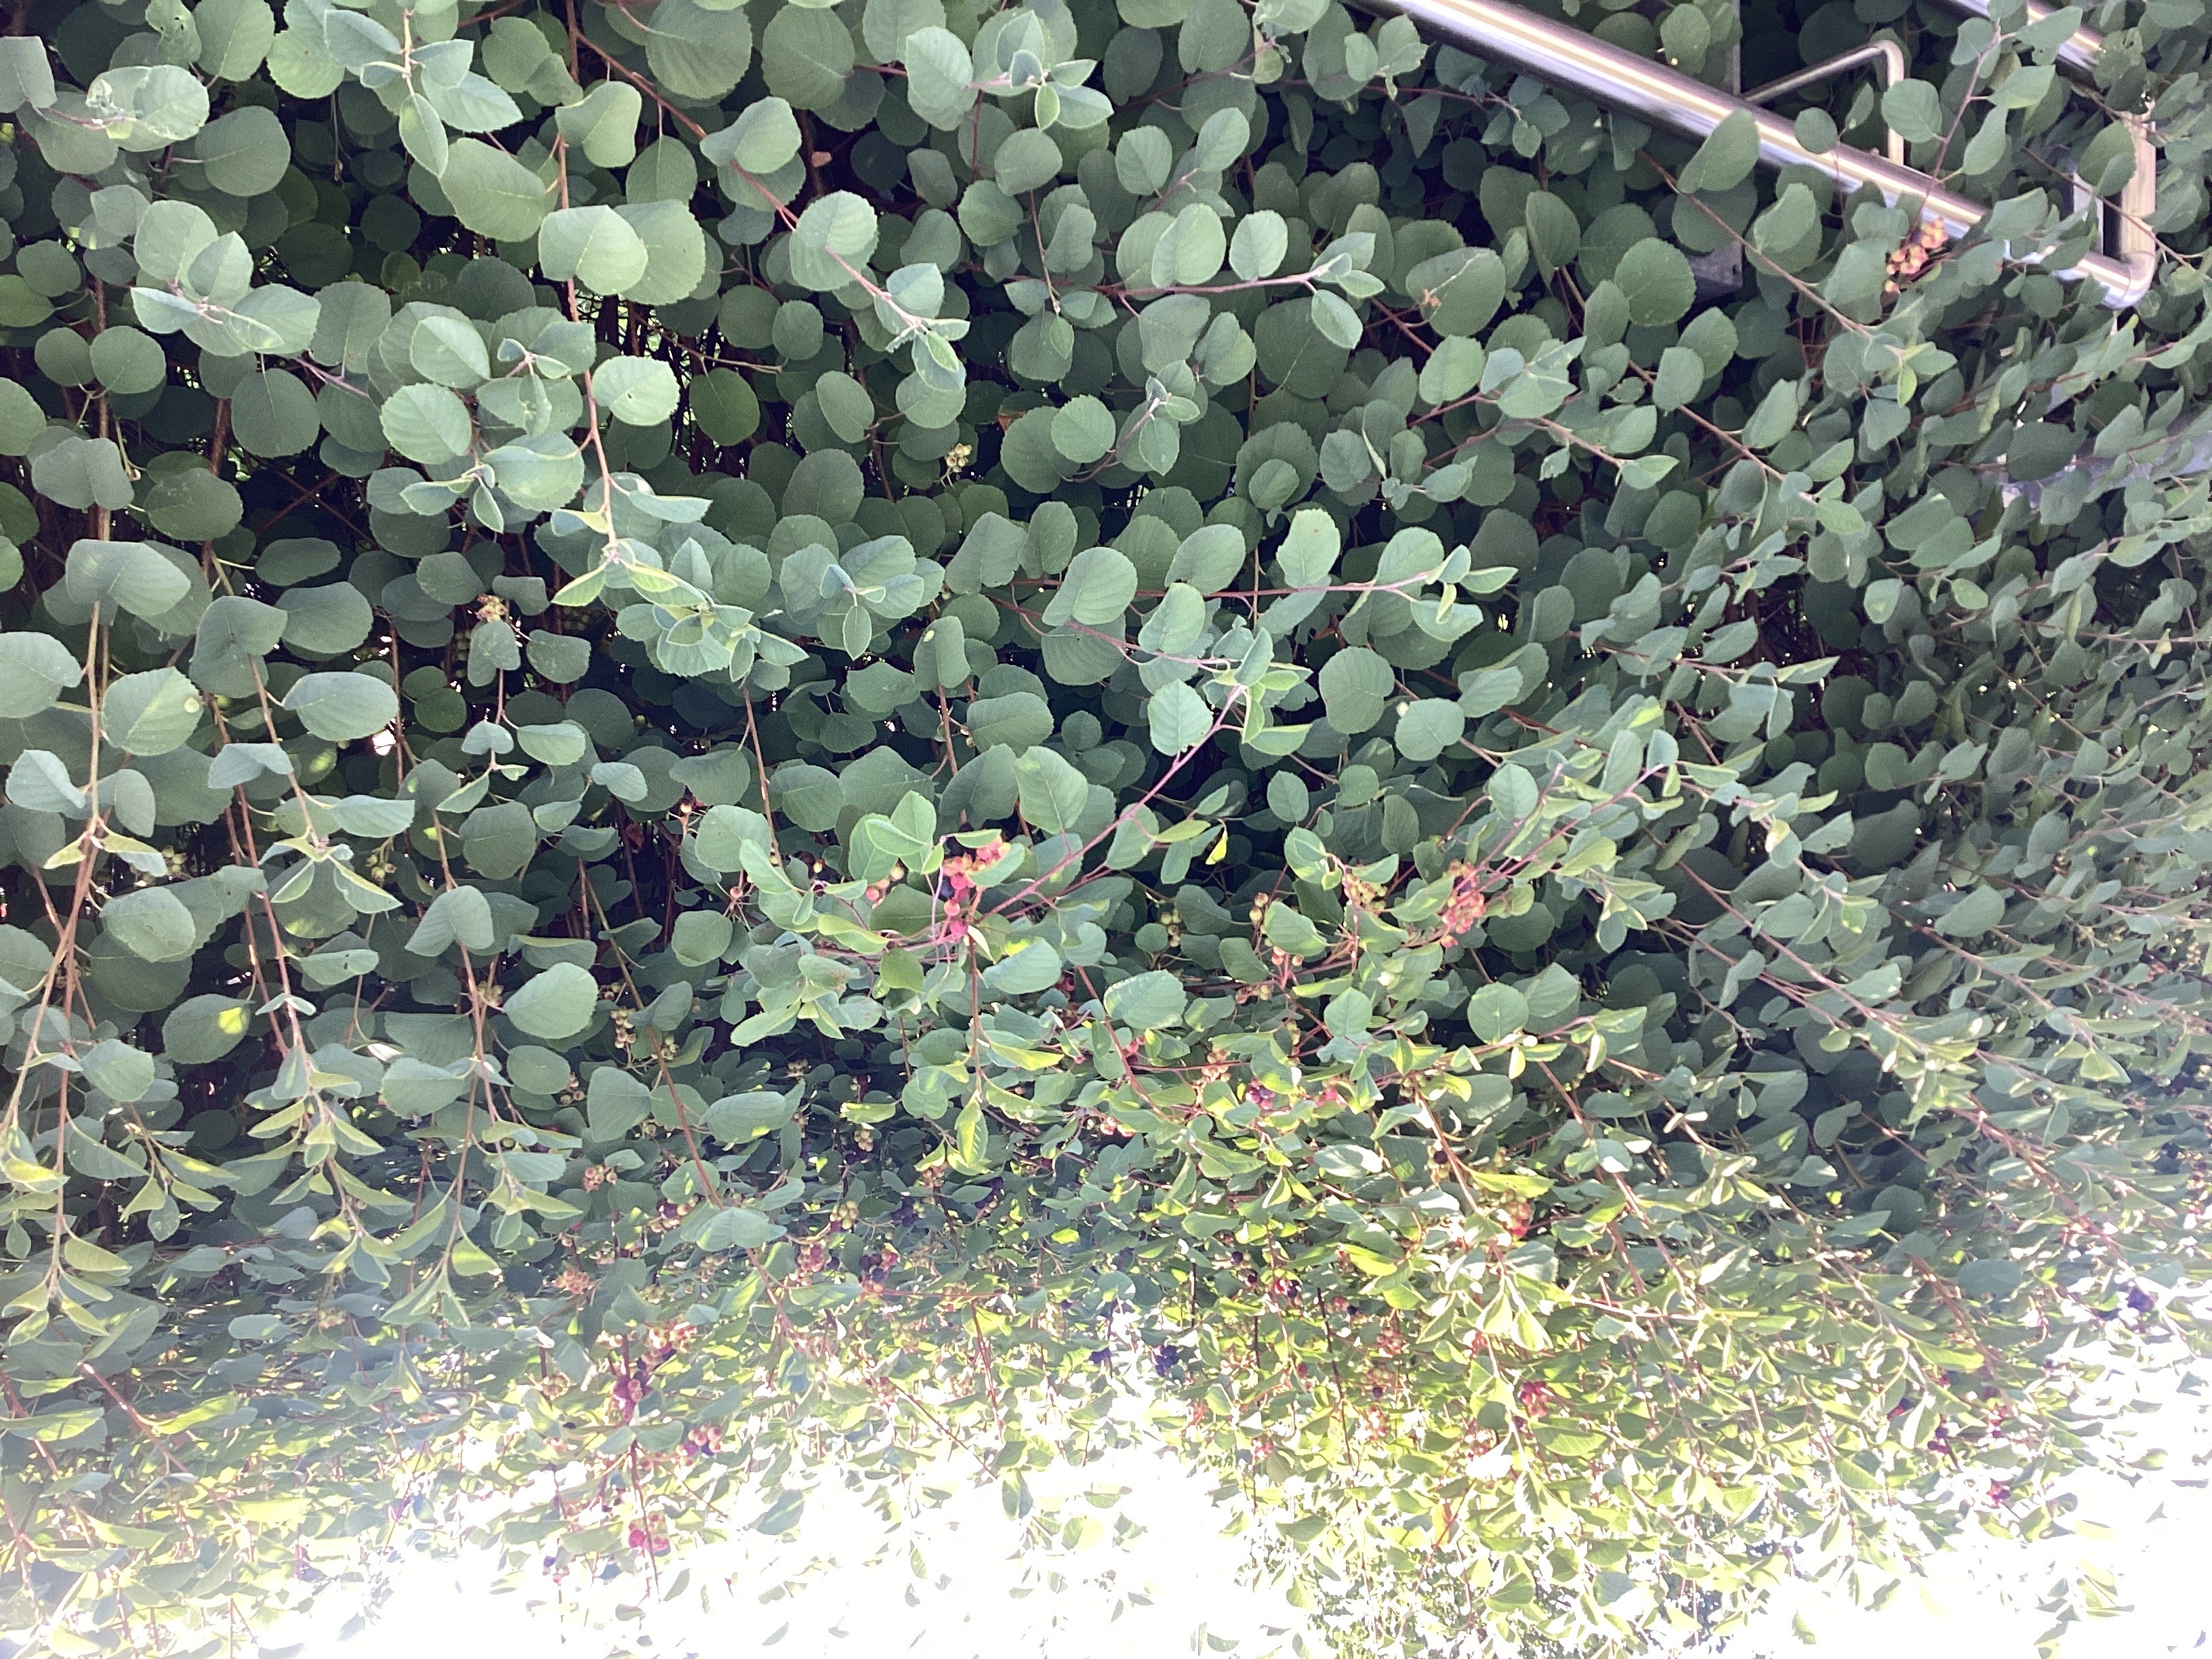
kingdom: Plantae
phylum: Tracheophyta
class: Magnoliopsida
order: Rosales
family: Rosaceae
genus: Amelanchier
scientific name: Amelanchier alnifolia
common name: taggblåhegg
